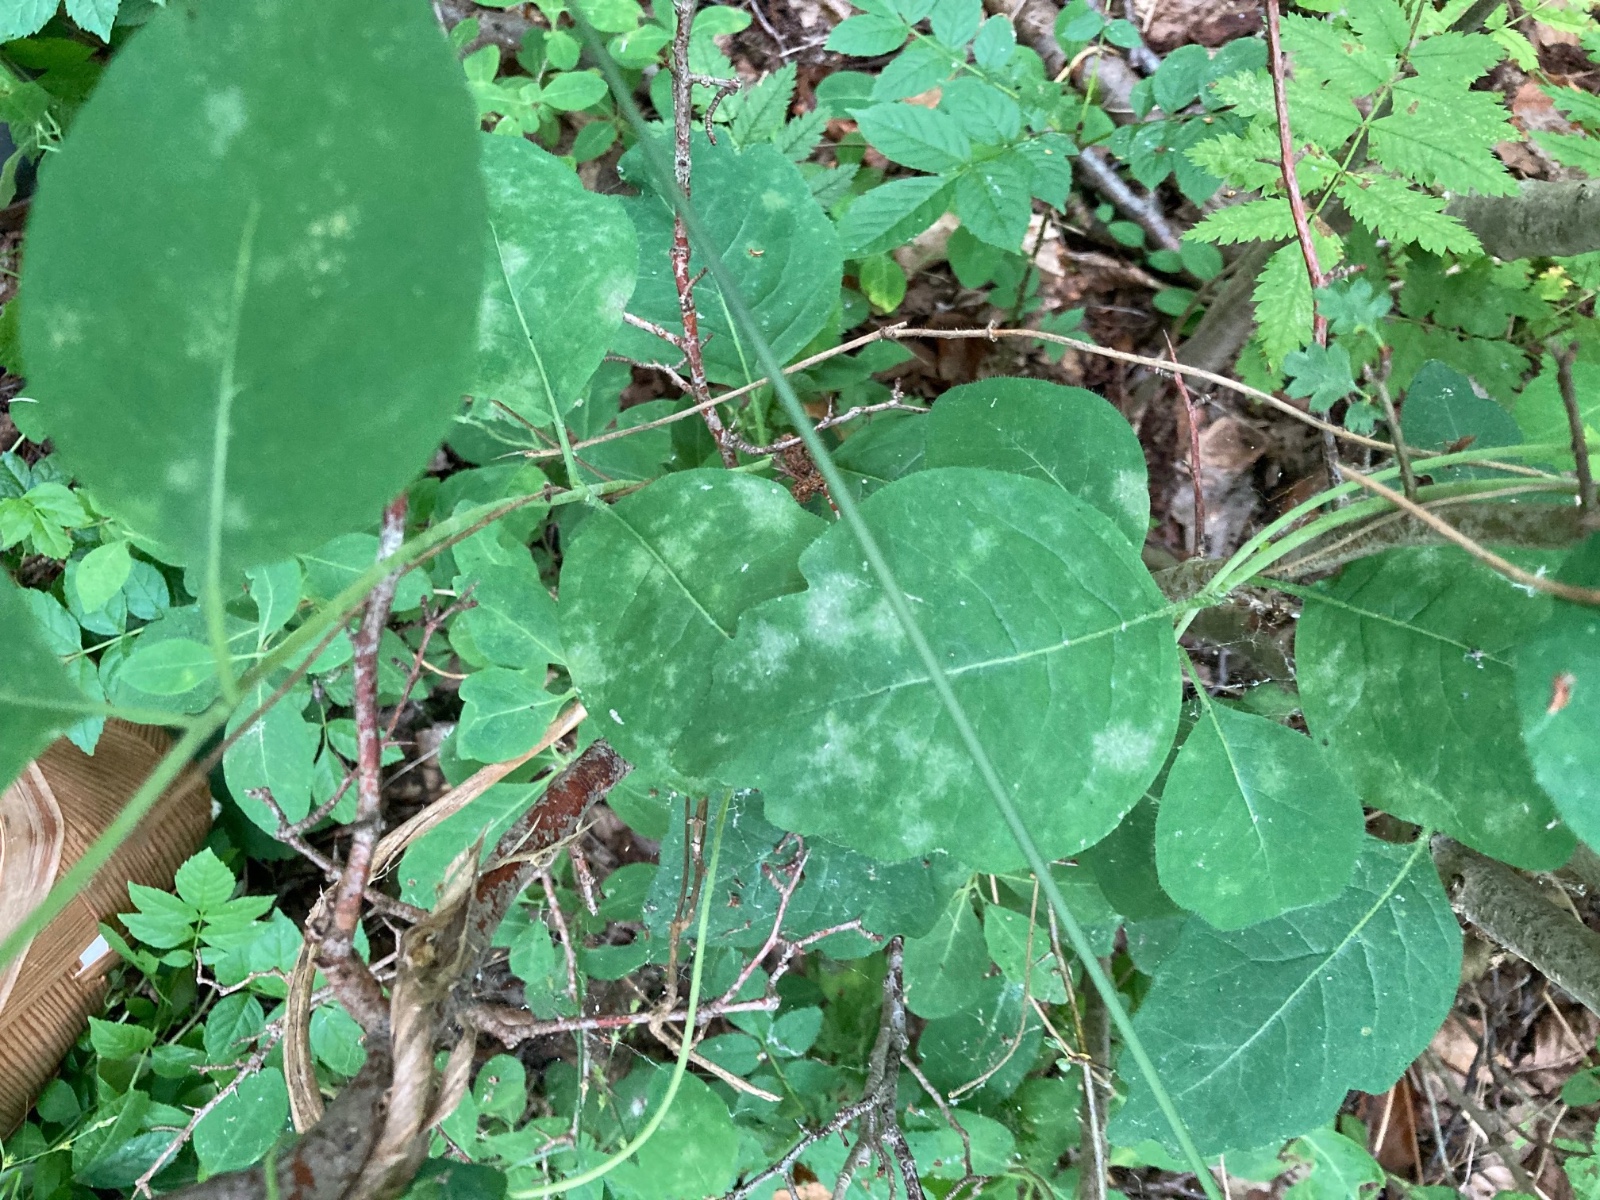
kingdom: Fungi
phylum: Ascomycota
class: Leotiomycetes
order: Helotiales
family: Erysiphaceae
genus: Erysiphe
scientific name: Erysiphe lonicerae
